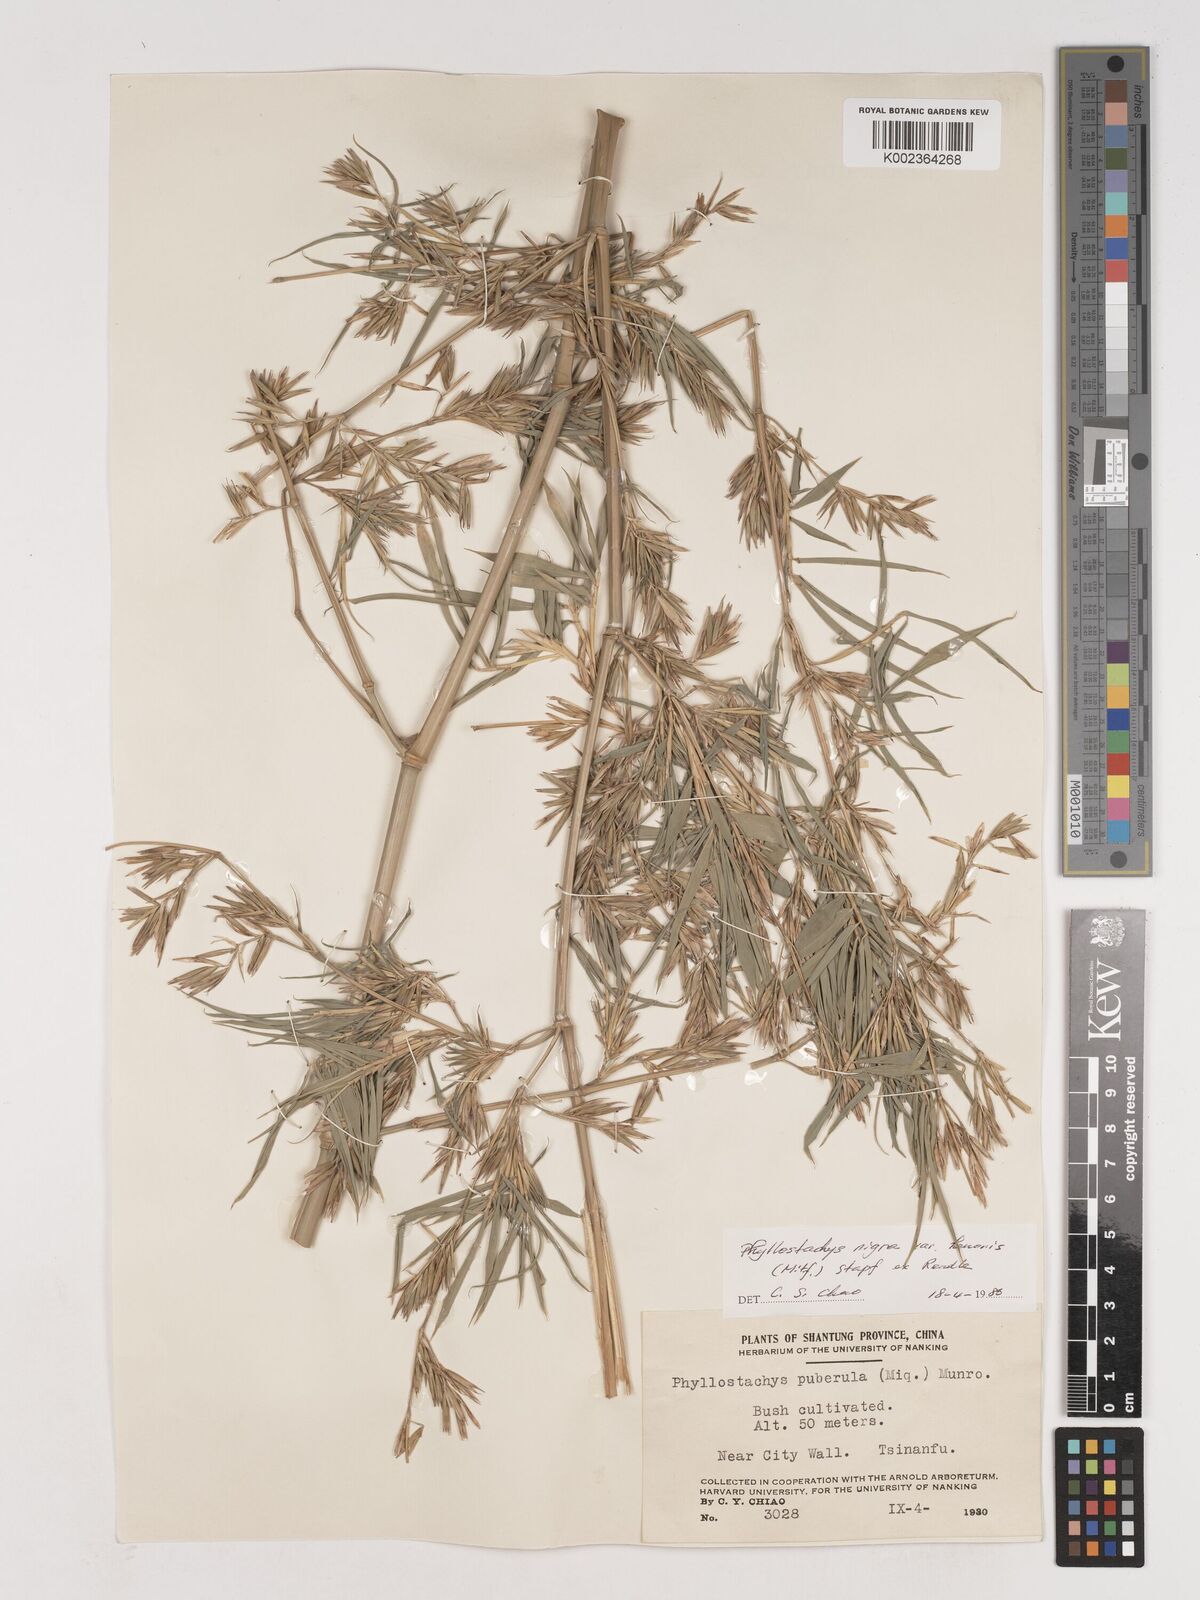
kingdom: Plantae
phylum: Tracheophyta
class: Liliopsida
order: Poales
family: Poaceae
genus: Phyllostachys
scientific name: Phyllostachys nigra
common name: Black bamboo
